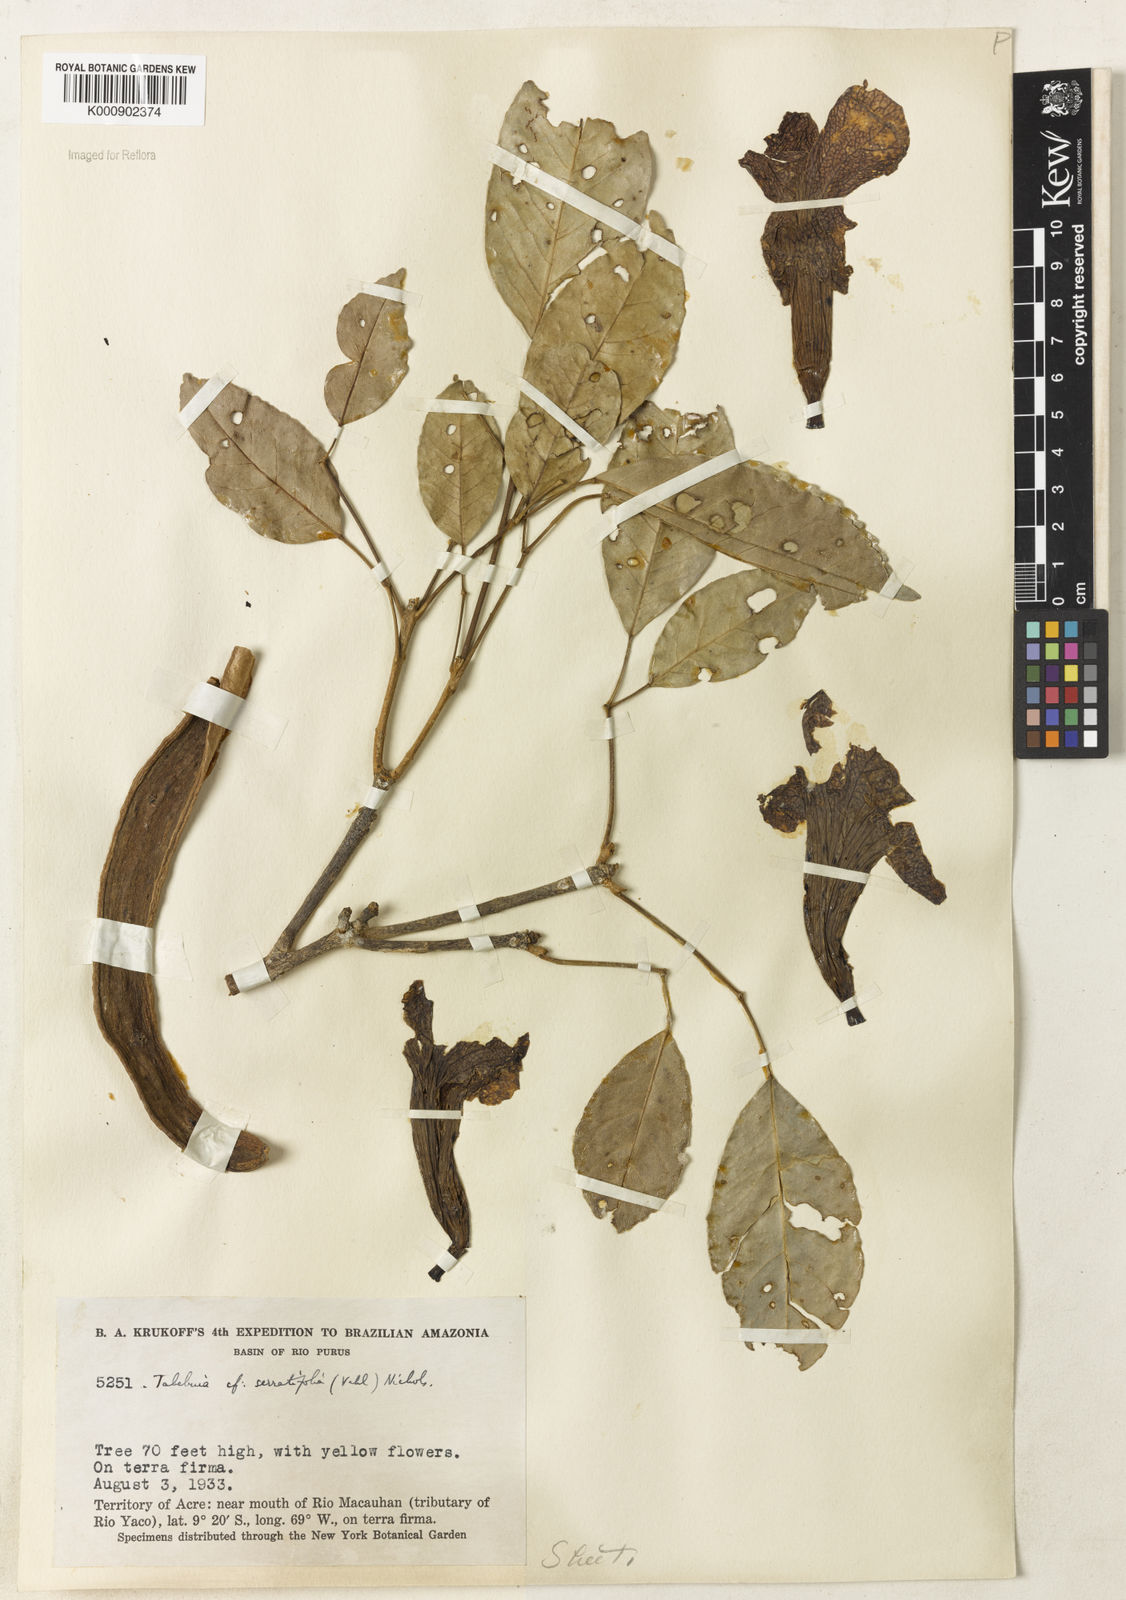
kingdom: Plantae
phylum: Tracheophyta
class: Magnoliopsida
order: Lamiales
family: Bignoniaceae
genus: Handroanthus
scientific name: Handroanthus serratifolius
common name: Yellow ipe
